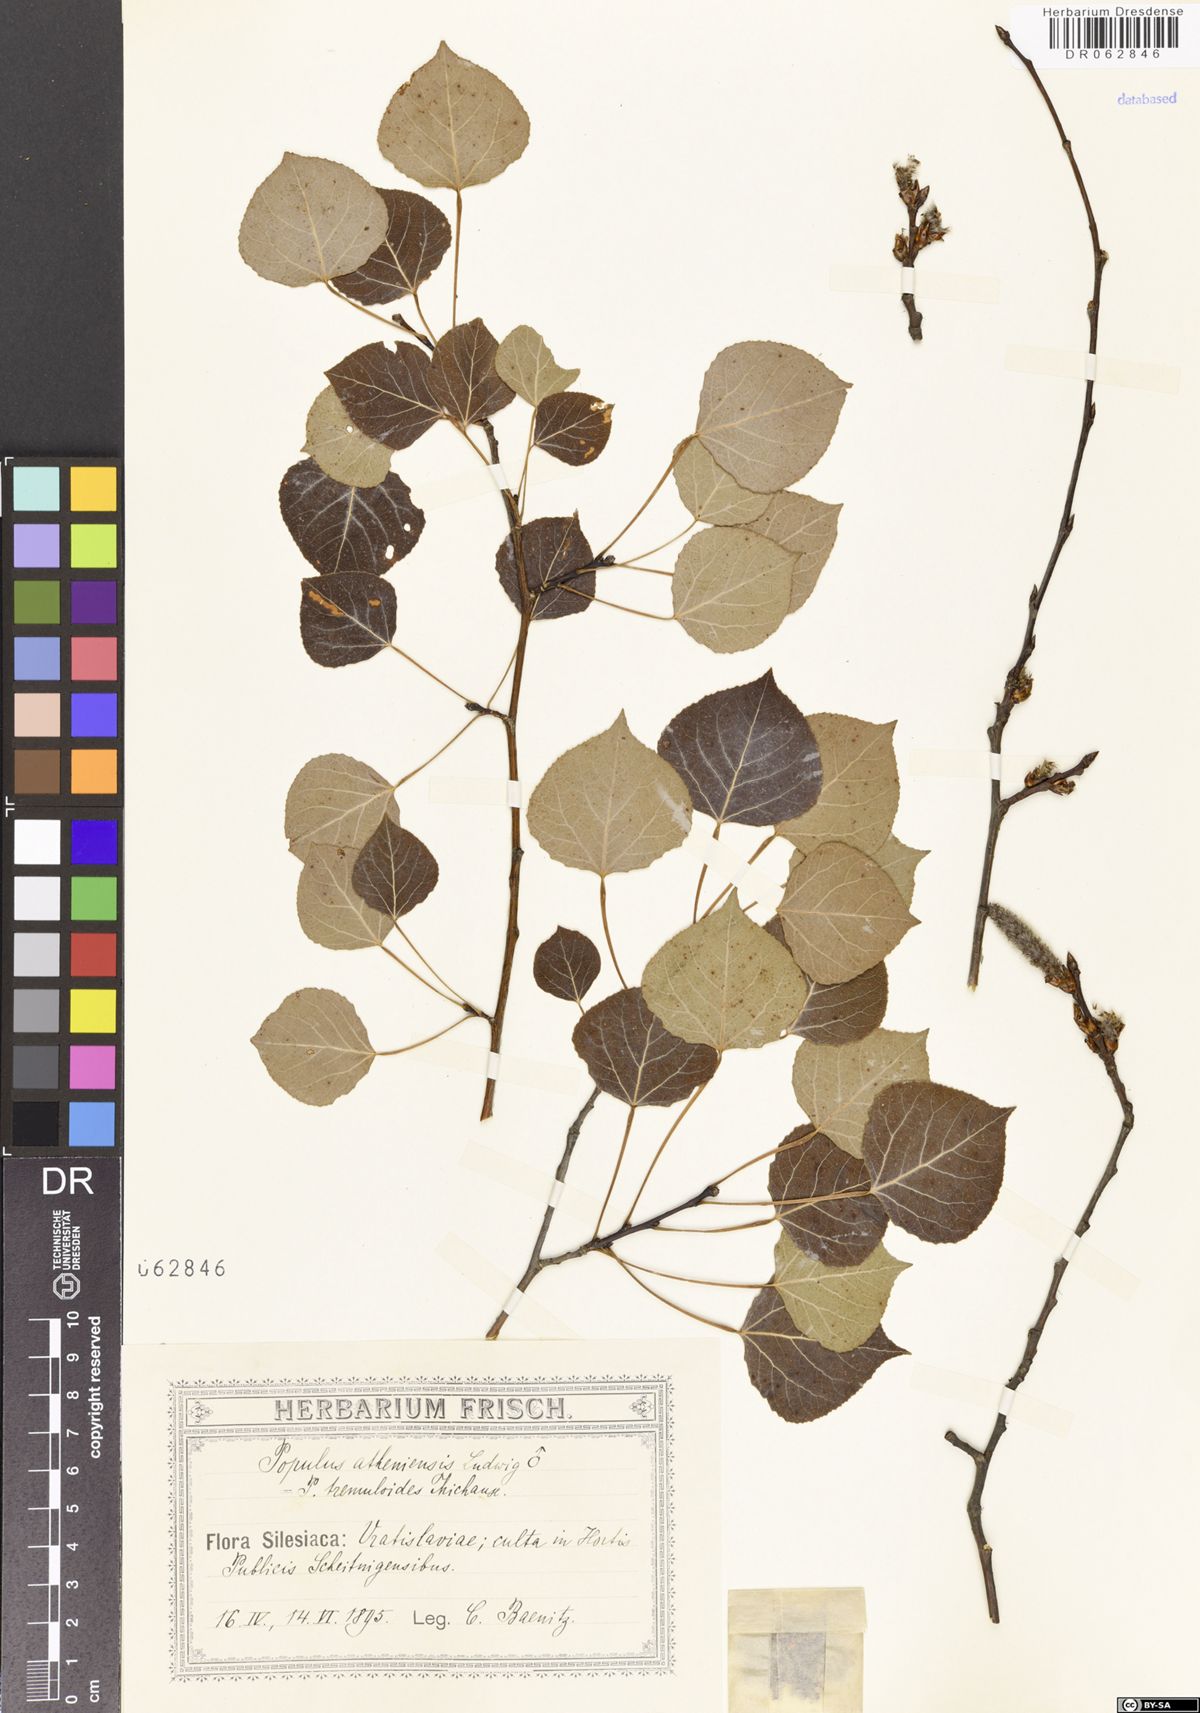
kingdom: Plantae
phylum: Tracheophyta
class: Magnoliopsida
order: Malpighiales
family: Salicaceae
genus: Populus
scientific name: Populus tremuloides
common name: Quaking aspen
